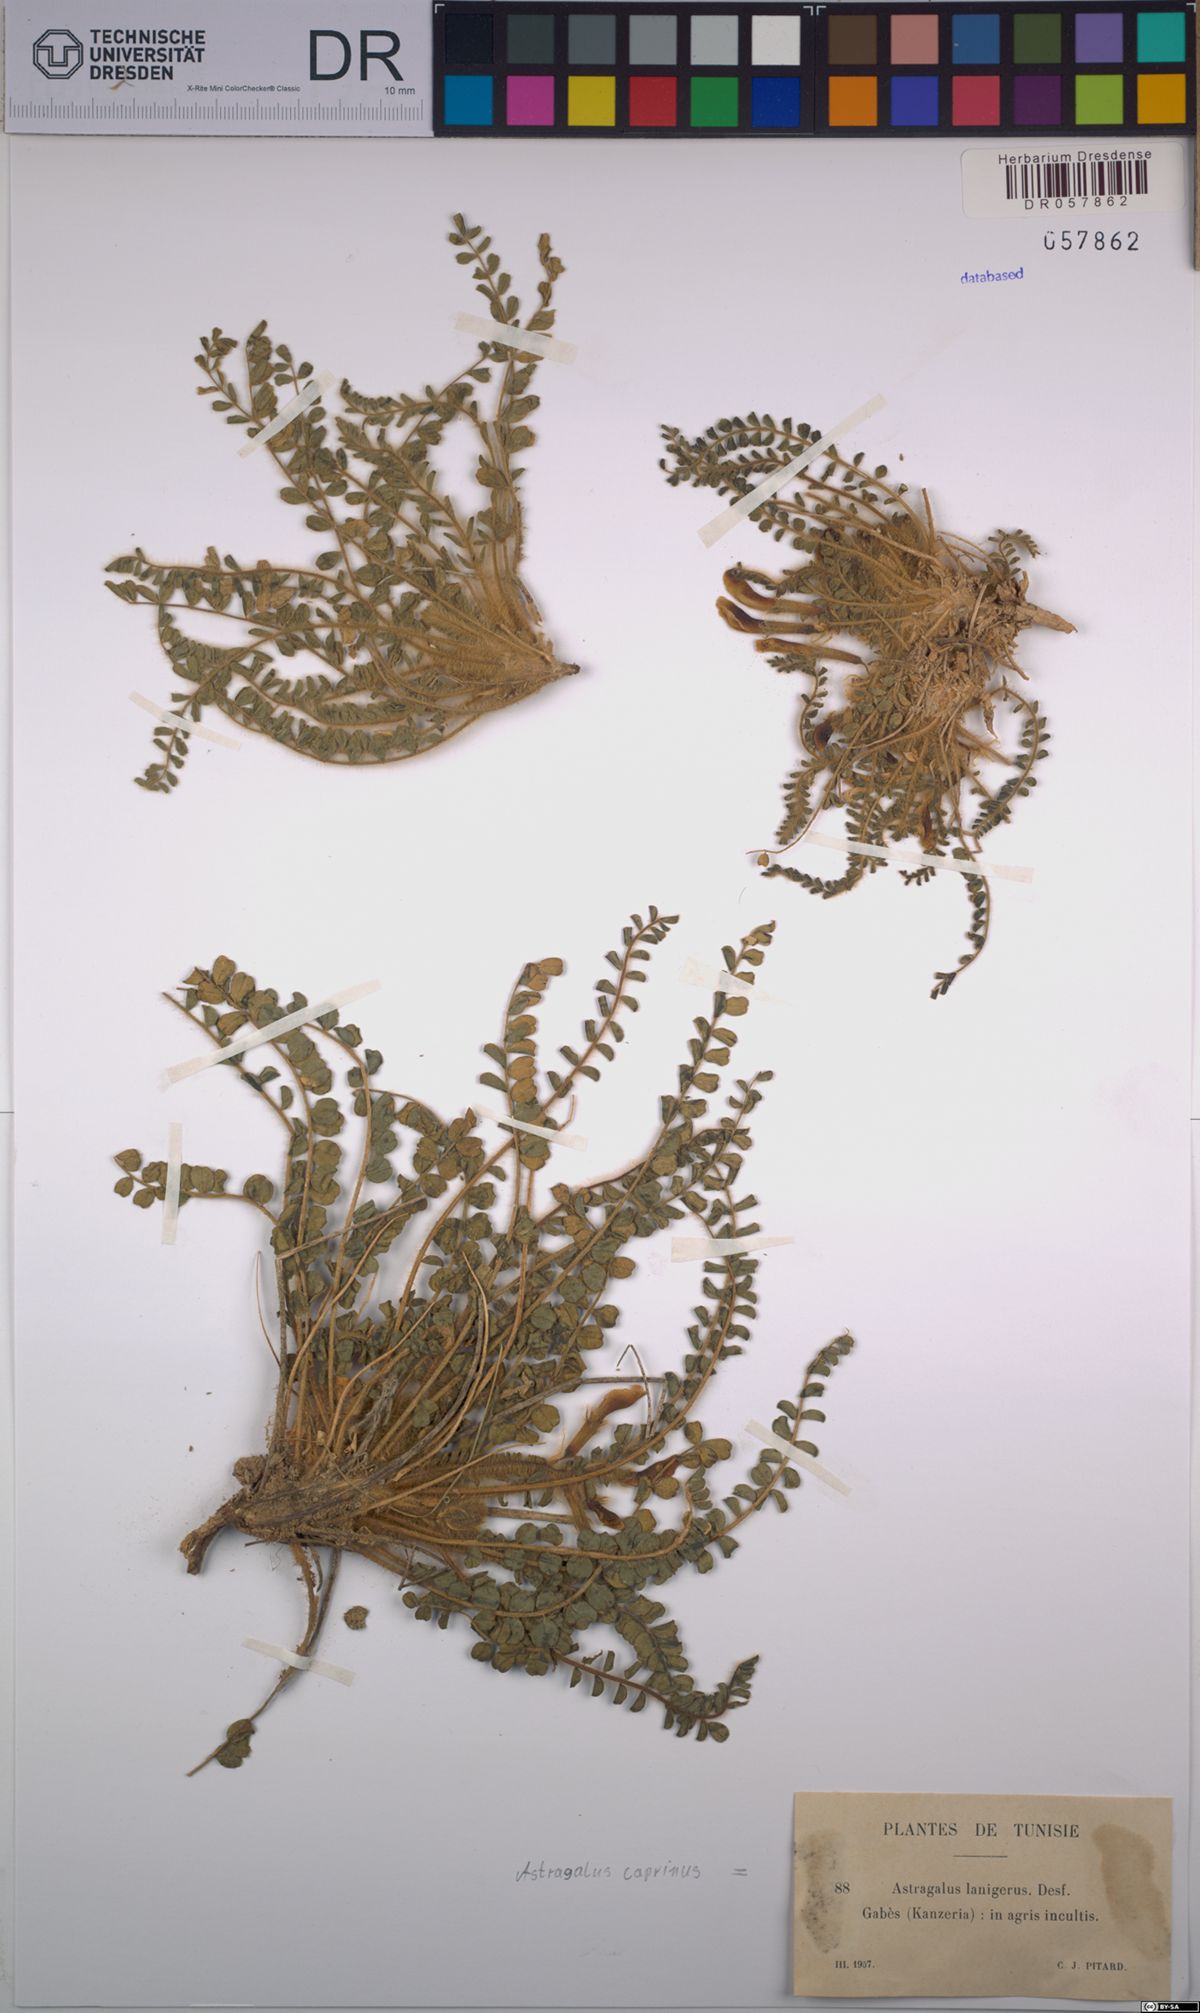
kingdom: Plantae
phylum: Tracheophyta
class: Magnoliopsida
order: Fabales
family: Fabaceae
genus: Astragalus
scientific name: Astragalus caprinus
